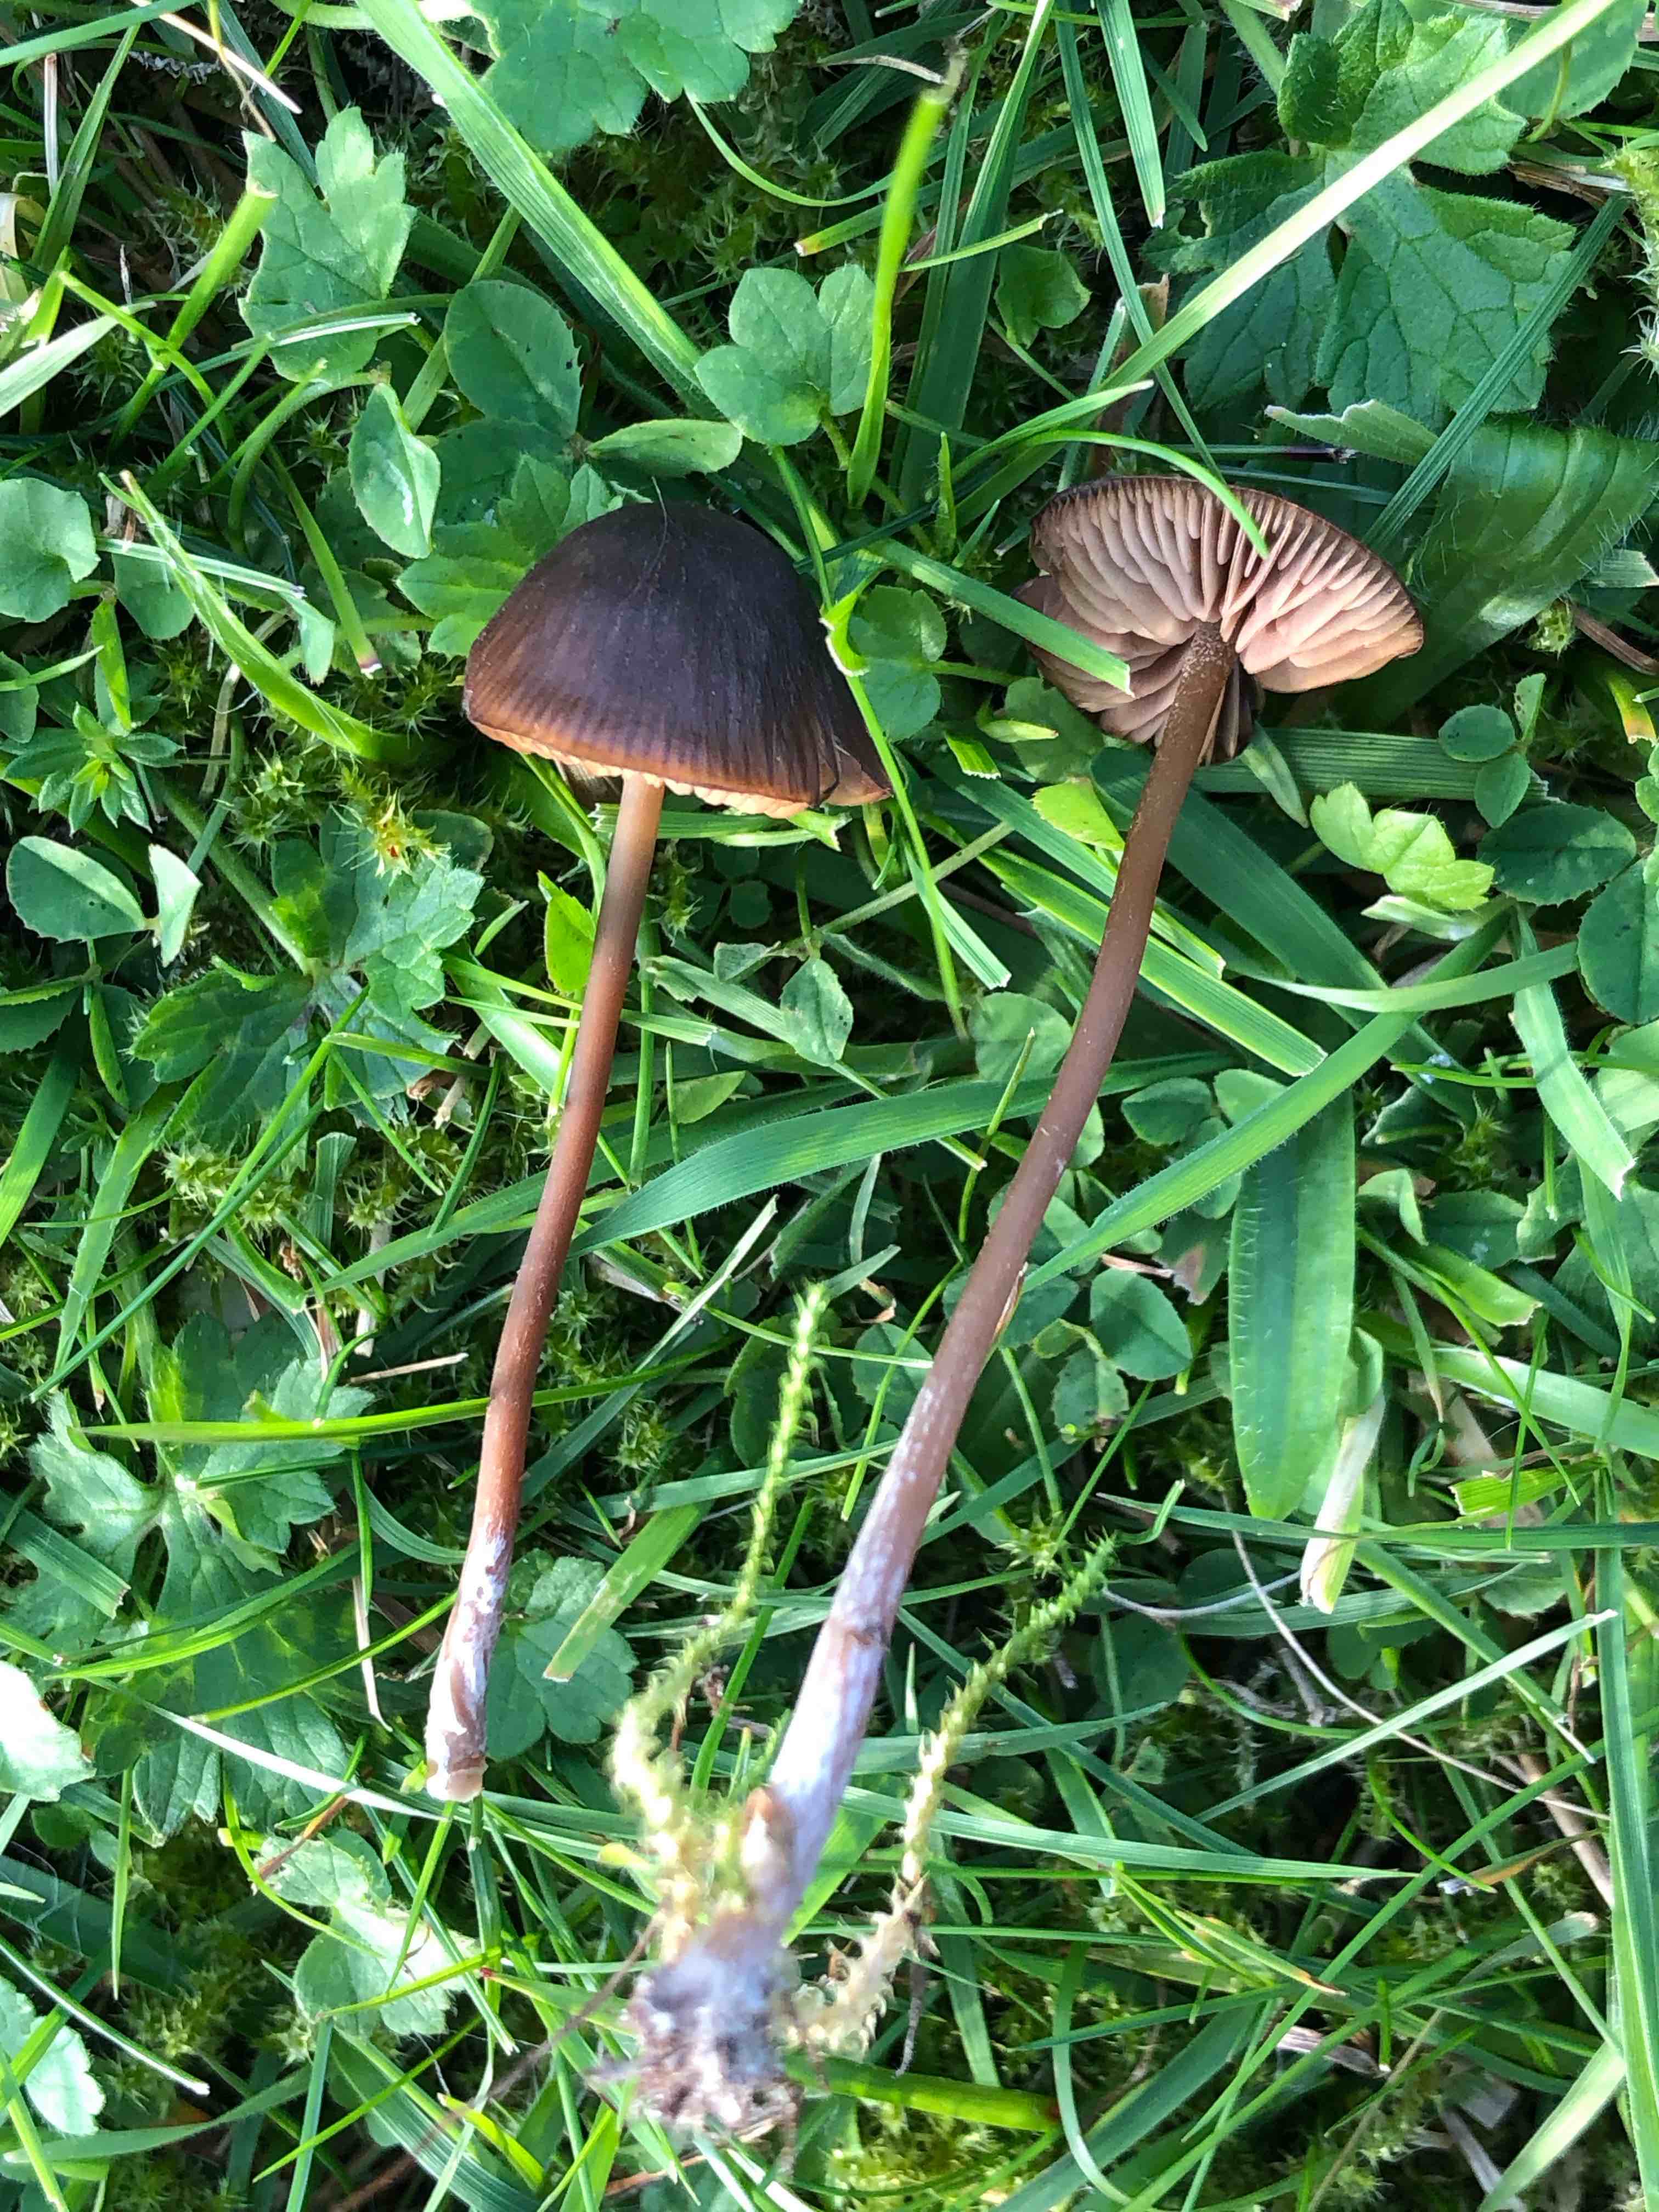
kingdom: Fungi
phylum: Basidiomycota
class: Agaricomycetes
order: Agaricales
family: Entolomataceae
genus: Entoloma
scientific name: Entoloma
